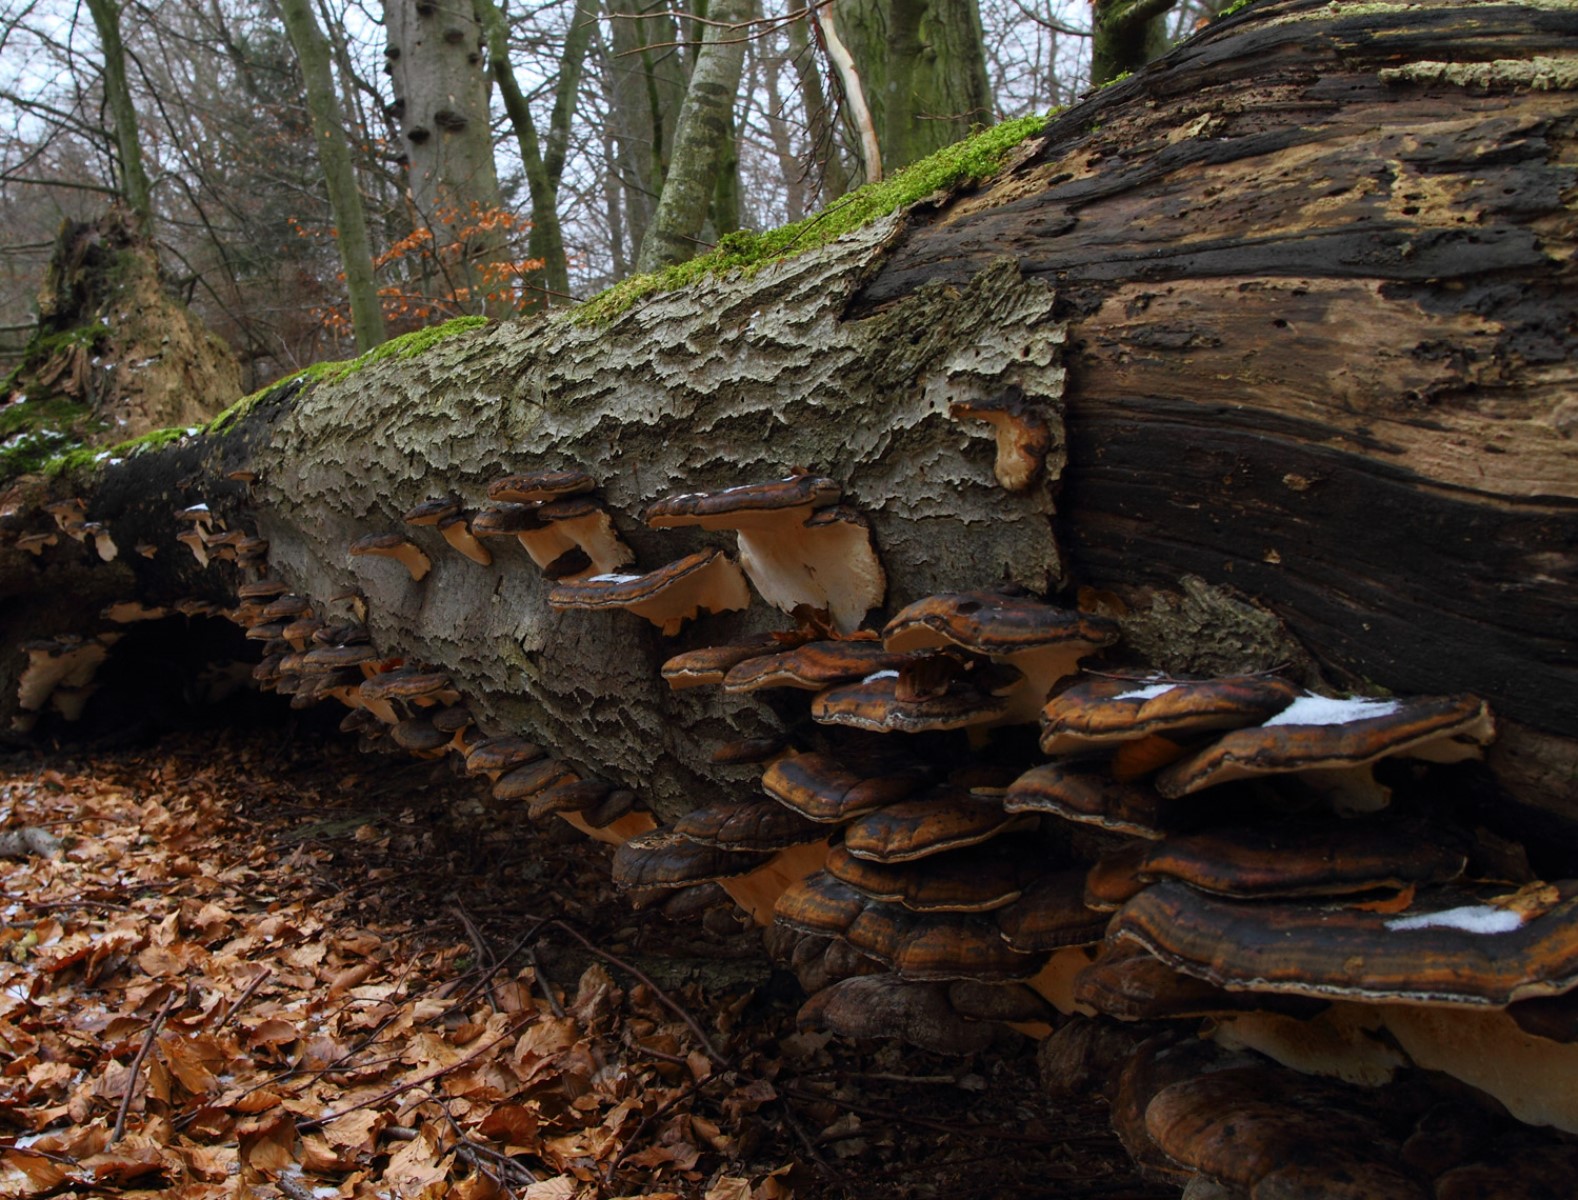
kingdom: Fungi
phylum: Basidiomycota
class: Agaricomycetes
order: Polyporales
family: Ischnodermataceae
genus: Ischnoderma
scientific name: Ischnoderma resinosum
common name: løv-tjæreporesvamp
